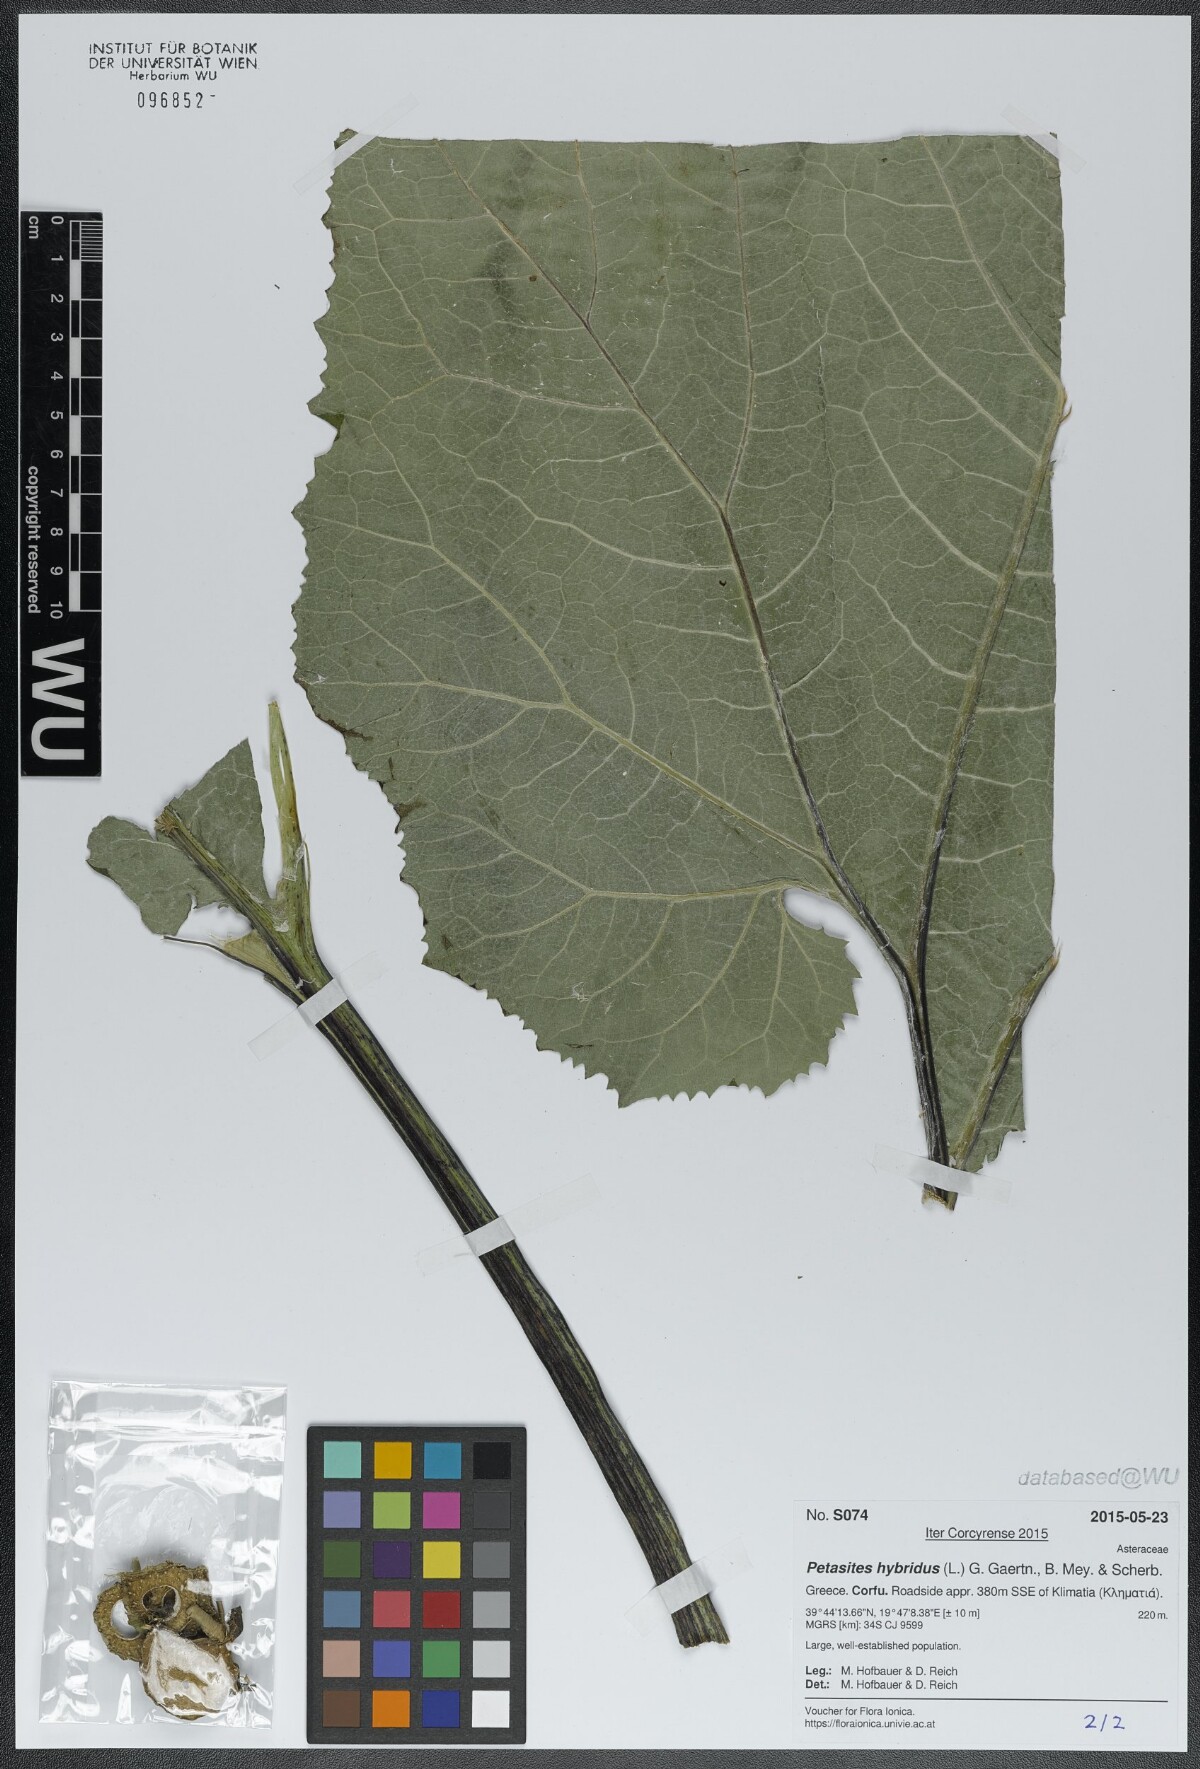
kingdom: Plantae
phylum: Tracheophyta
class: Magnoliopsida
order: Asterales
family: Asteraceae
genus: Petasites
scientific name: Petasites hybridus
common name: Butterbur
